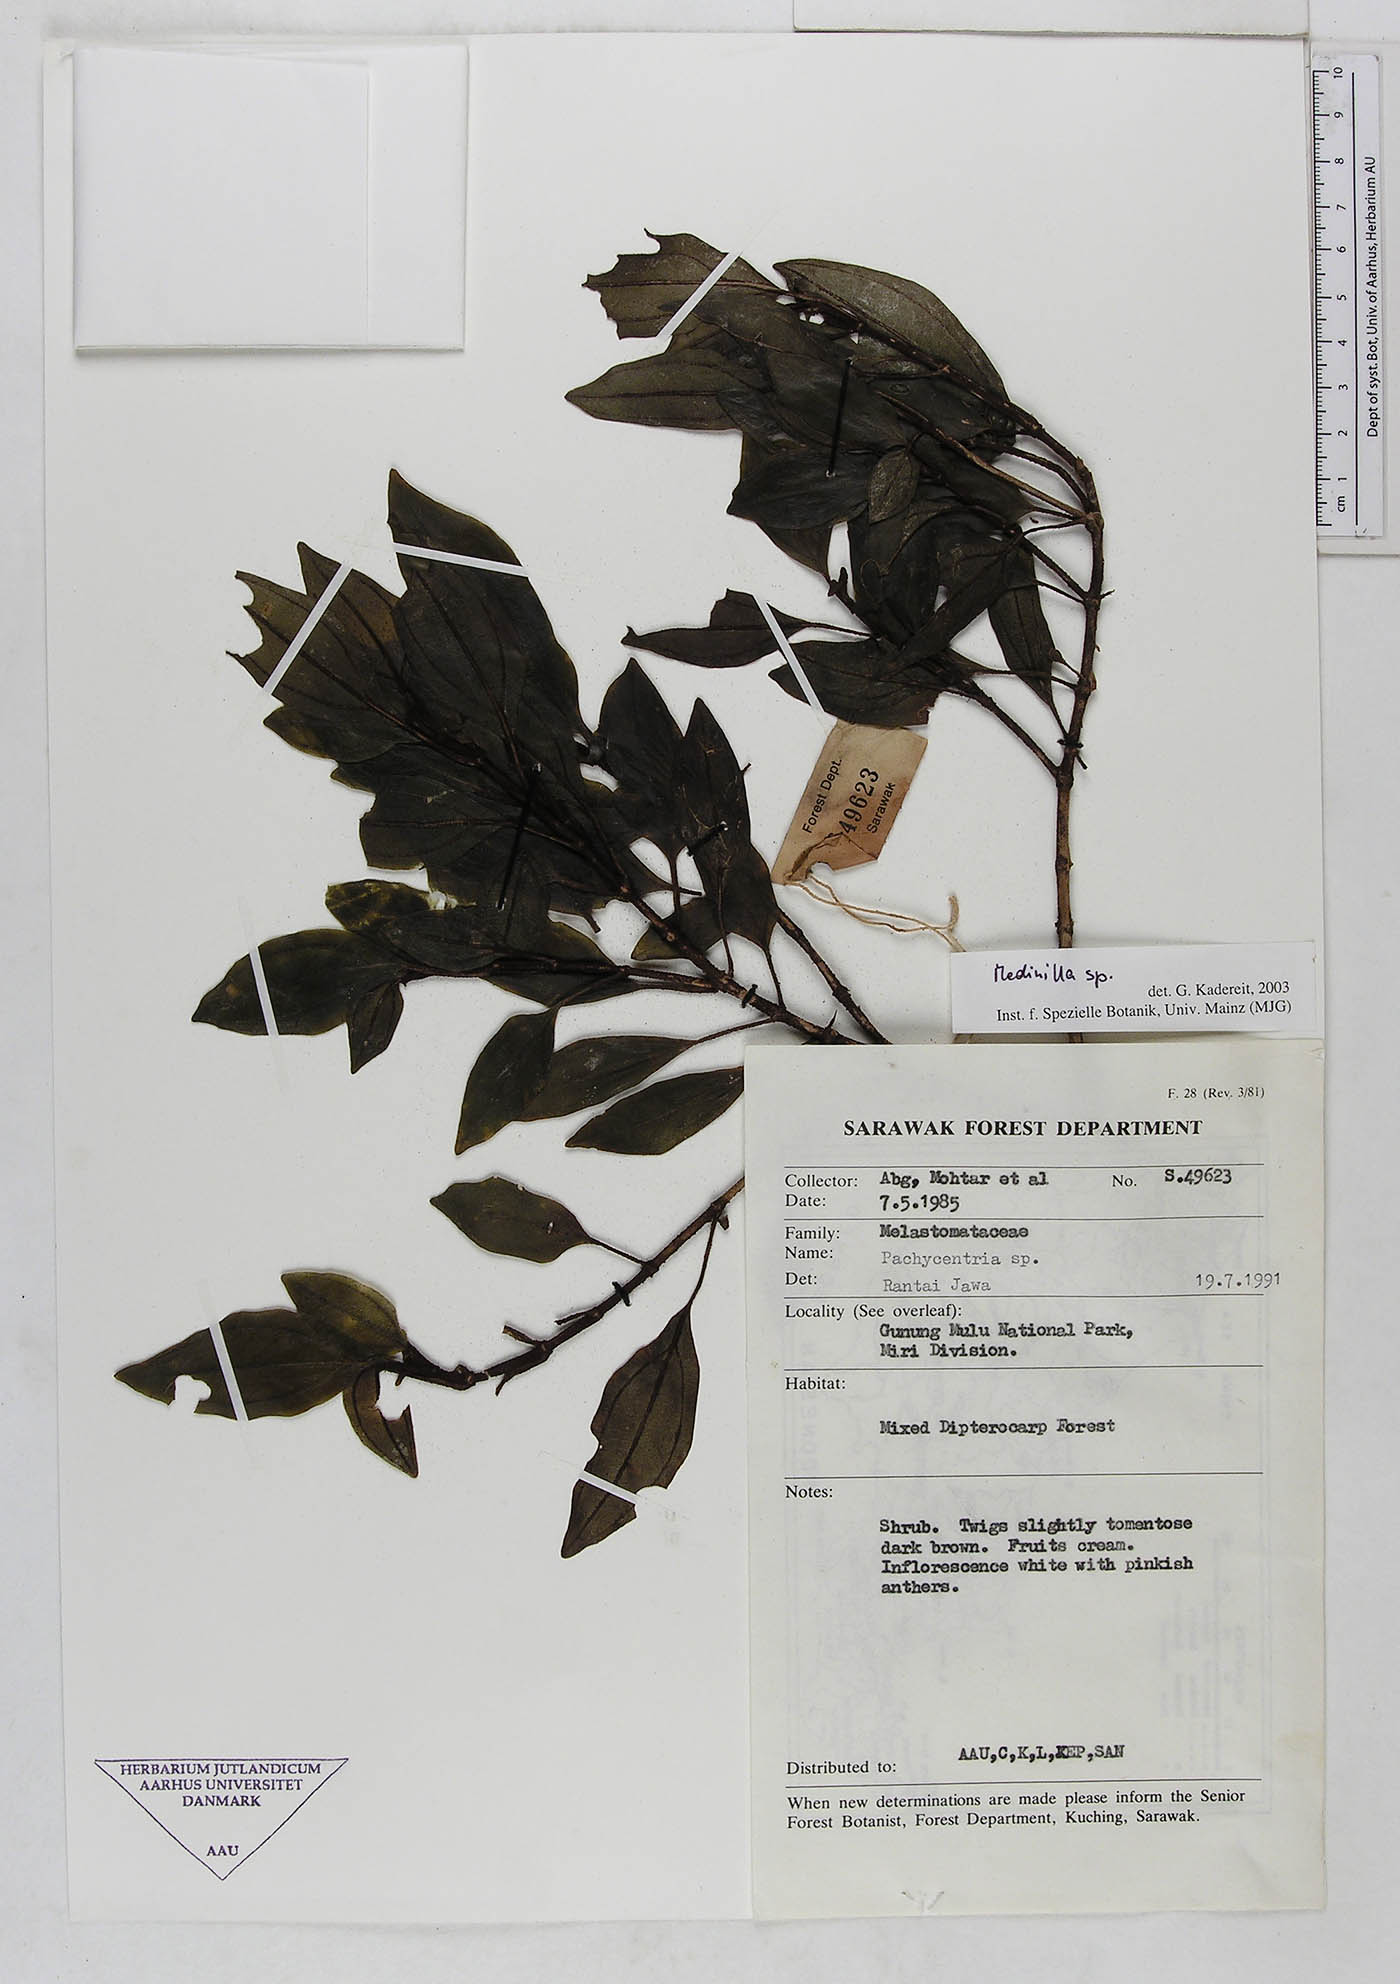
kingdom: Plantae
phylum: Tracheophyta
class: Magnoliopsida
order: Myrtales
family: Melastomataceae
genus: Medinilla
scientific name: Medinilla
